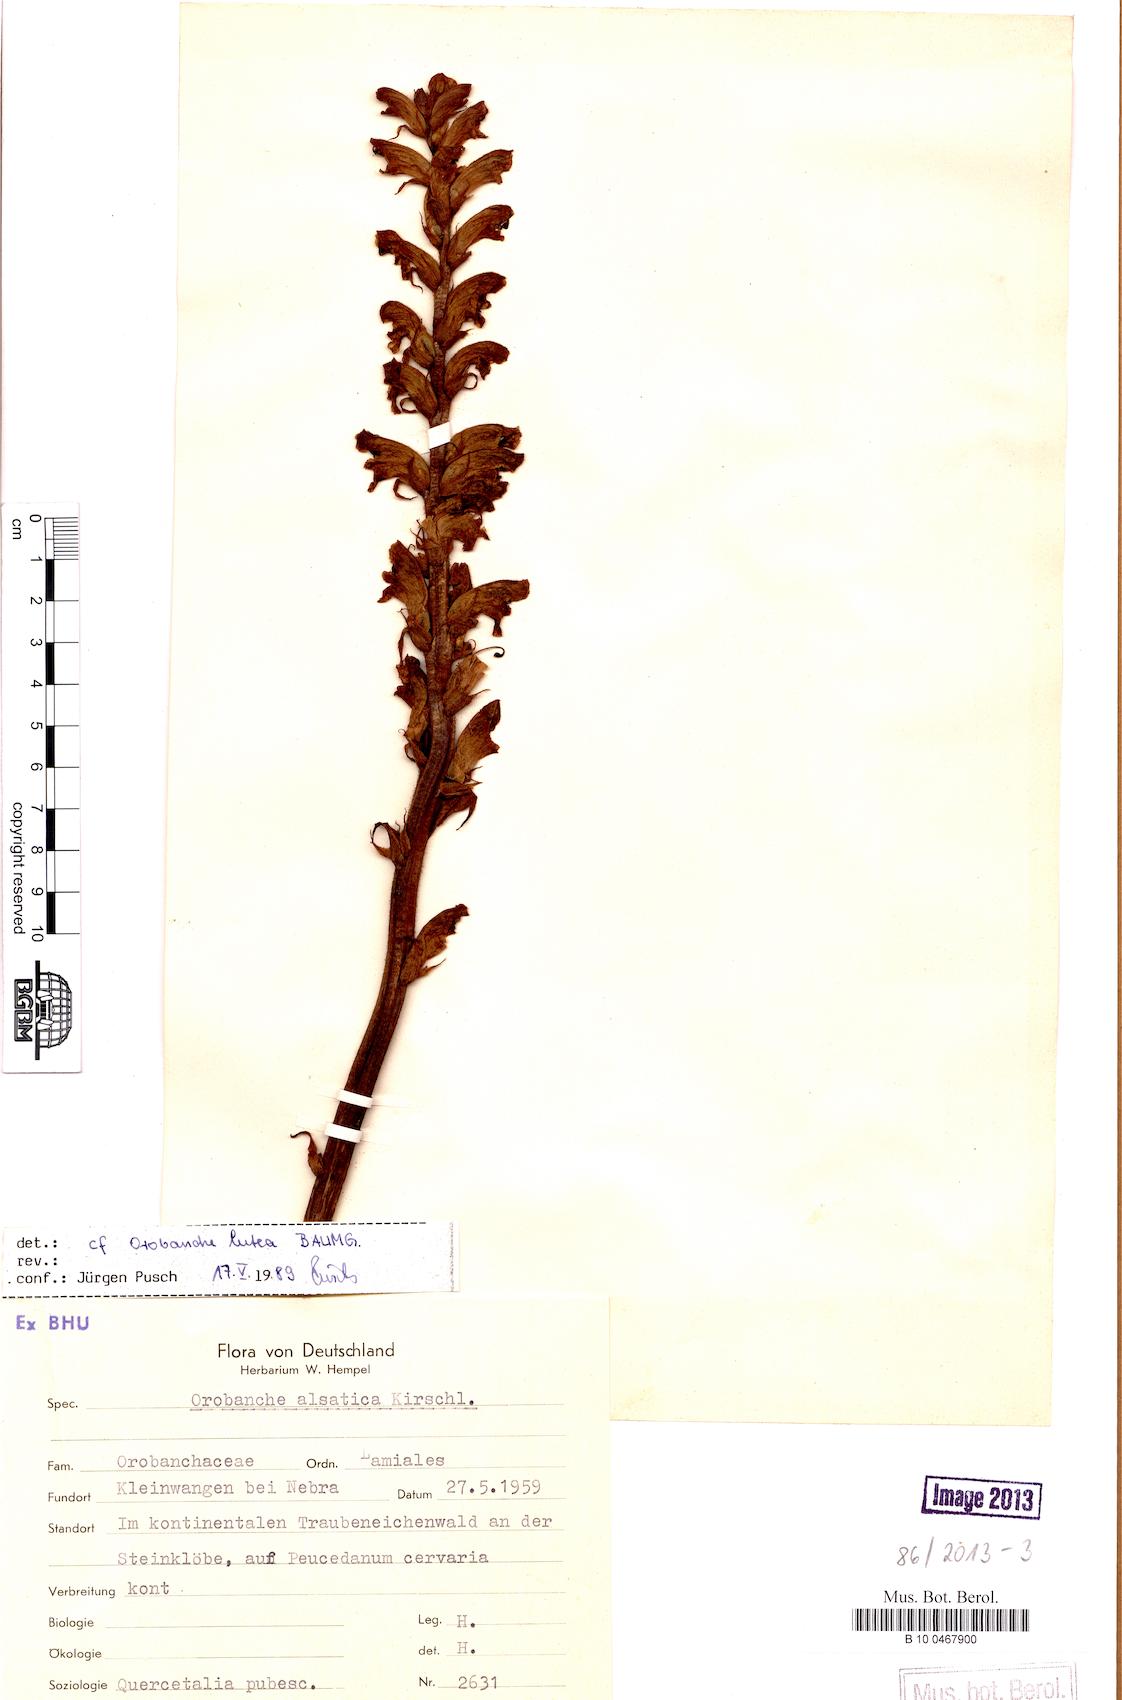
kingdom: Plantae
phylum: Tracheophyta
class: Magnoliopsida
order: Lamiales
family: Orobanchaceae
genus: Orobanche
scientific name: Orobanche lutea
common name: Yellow broomrape
